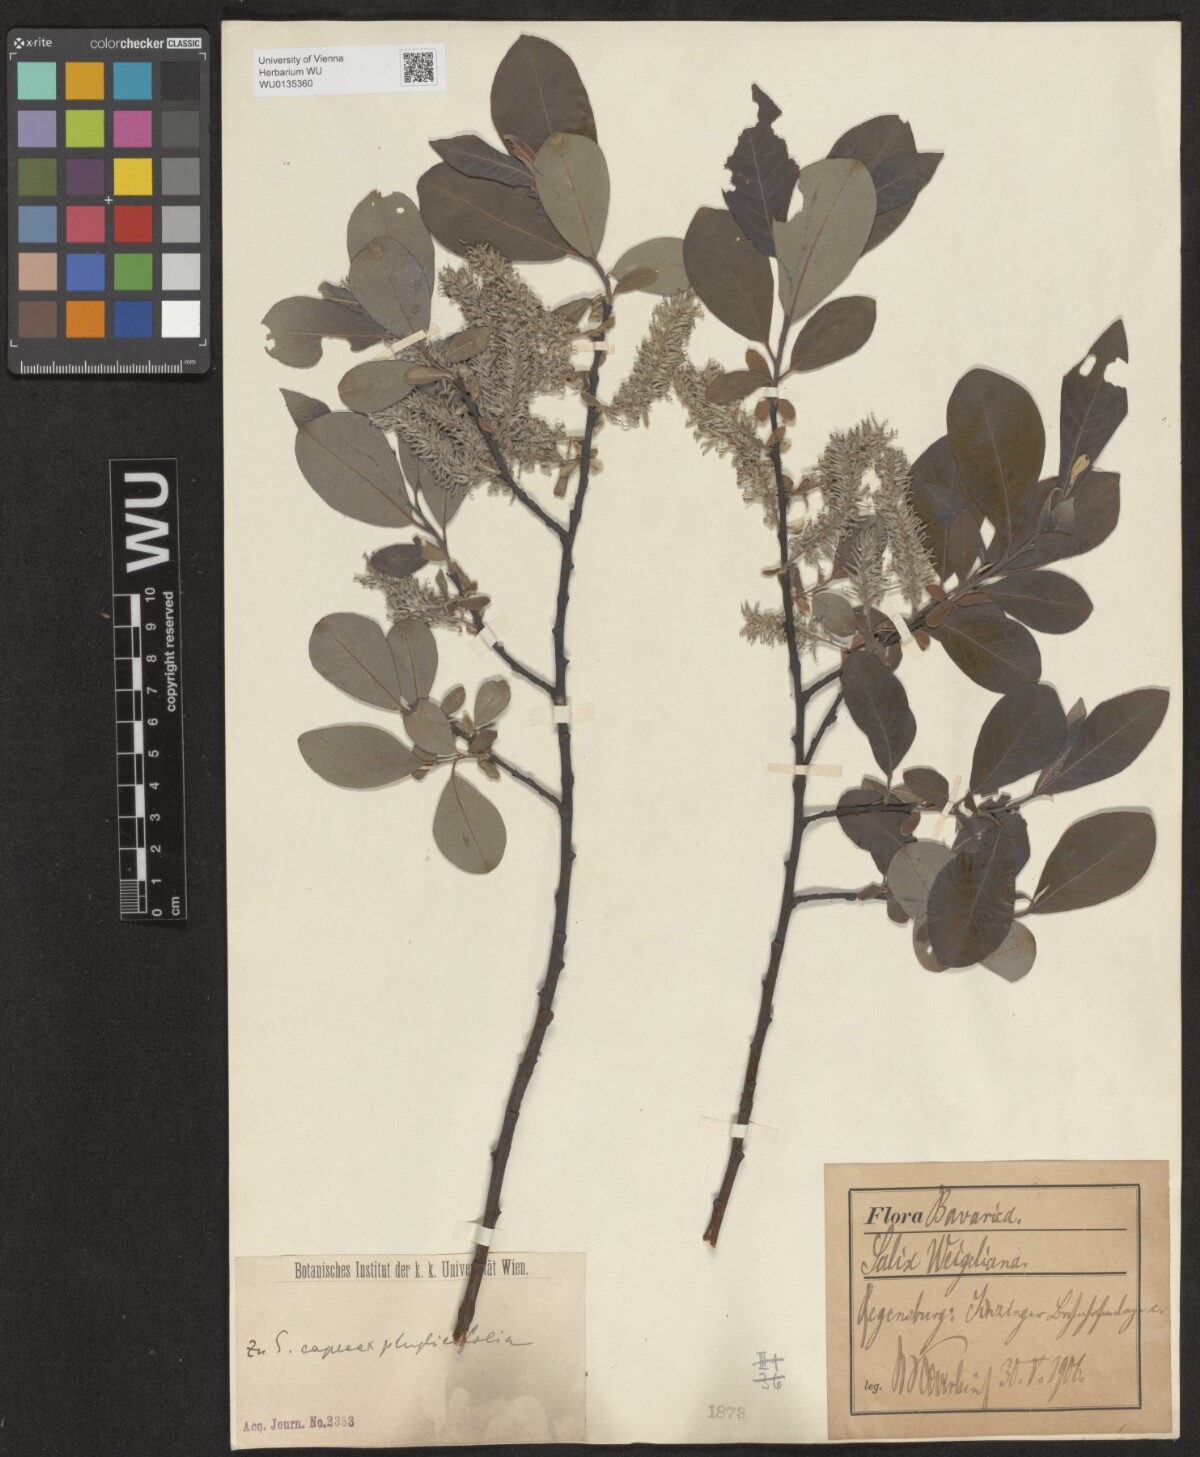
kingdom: Plantae
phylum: Tracheophyta
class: Magnoliopsida
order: Malpighiales
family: Salicaceae
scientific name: Salicaceae
